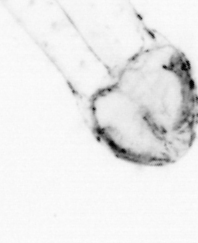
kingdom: Animalia
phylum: Chaetognatha
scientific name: Chaetognatha
